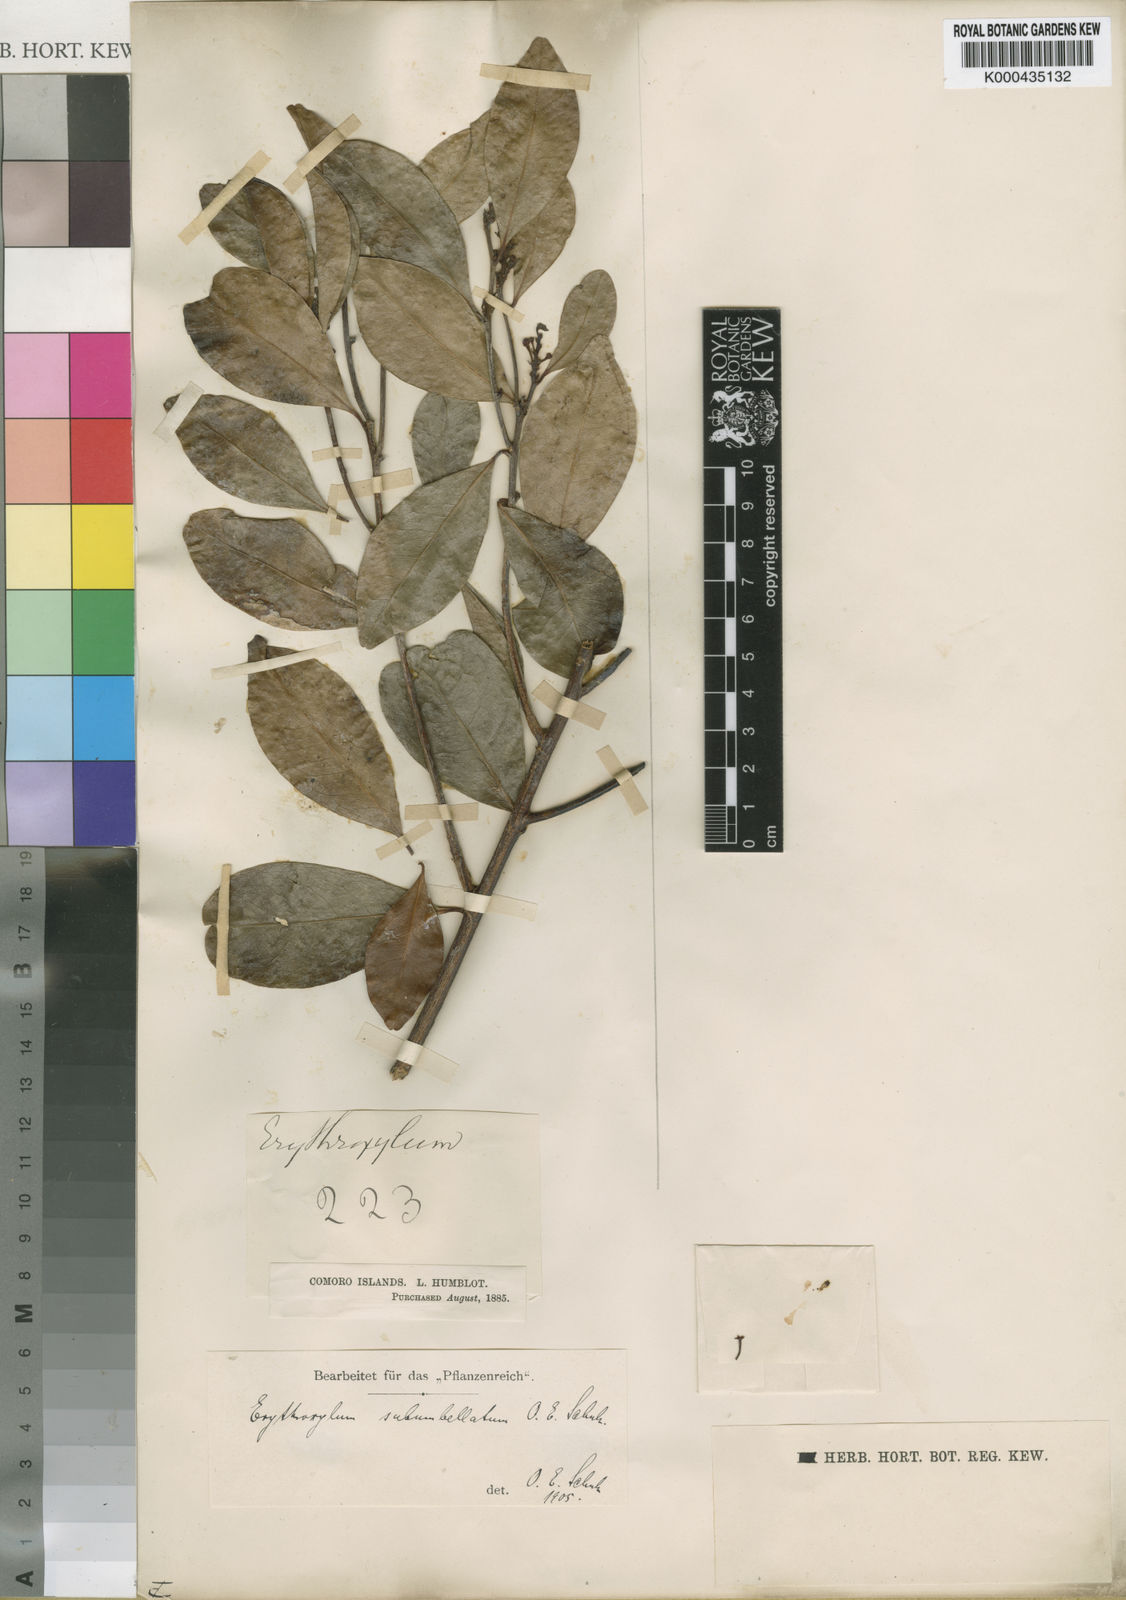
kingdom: Plantae
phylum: Tracheophyta
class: Magnoliopsida
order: Malpighiales
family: Erythroxylaceae
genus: Erythroxylum
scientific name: Erythroxylum lanceum
